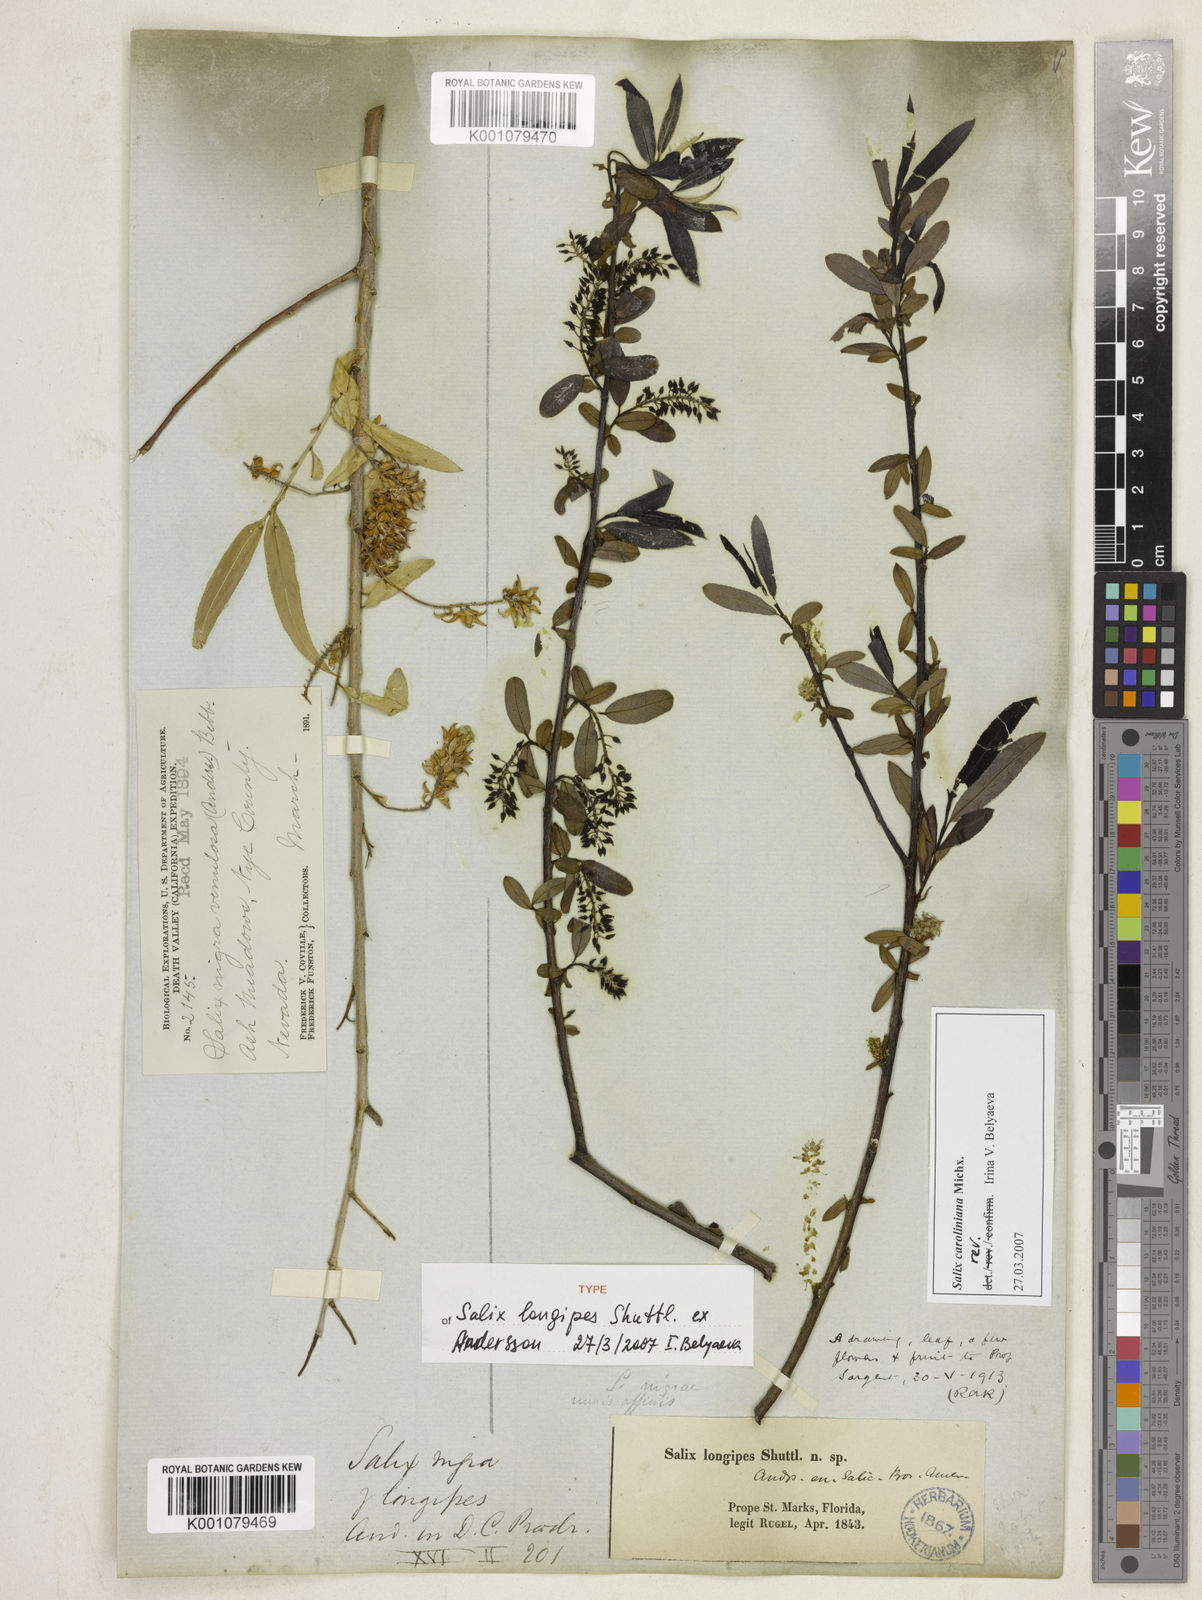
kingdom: Plantae
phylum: Tracheophyta
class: Magnoliopsida
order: Malpighiales
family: Salicaceae
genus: Salix
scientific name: Salix caroliniana
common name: Carolina willow
